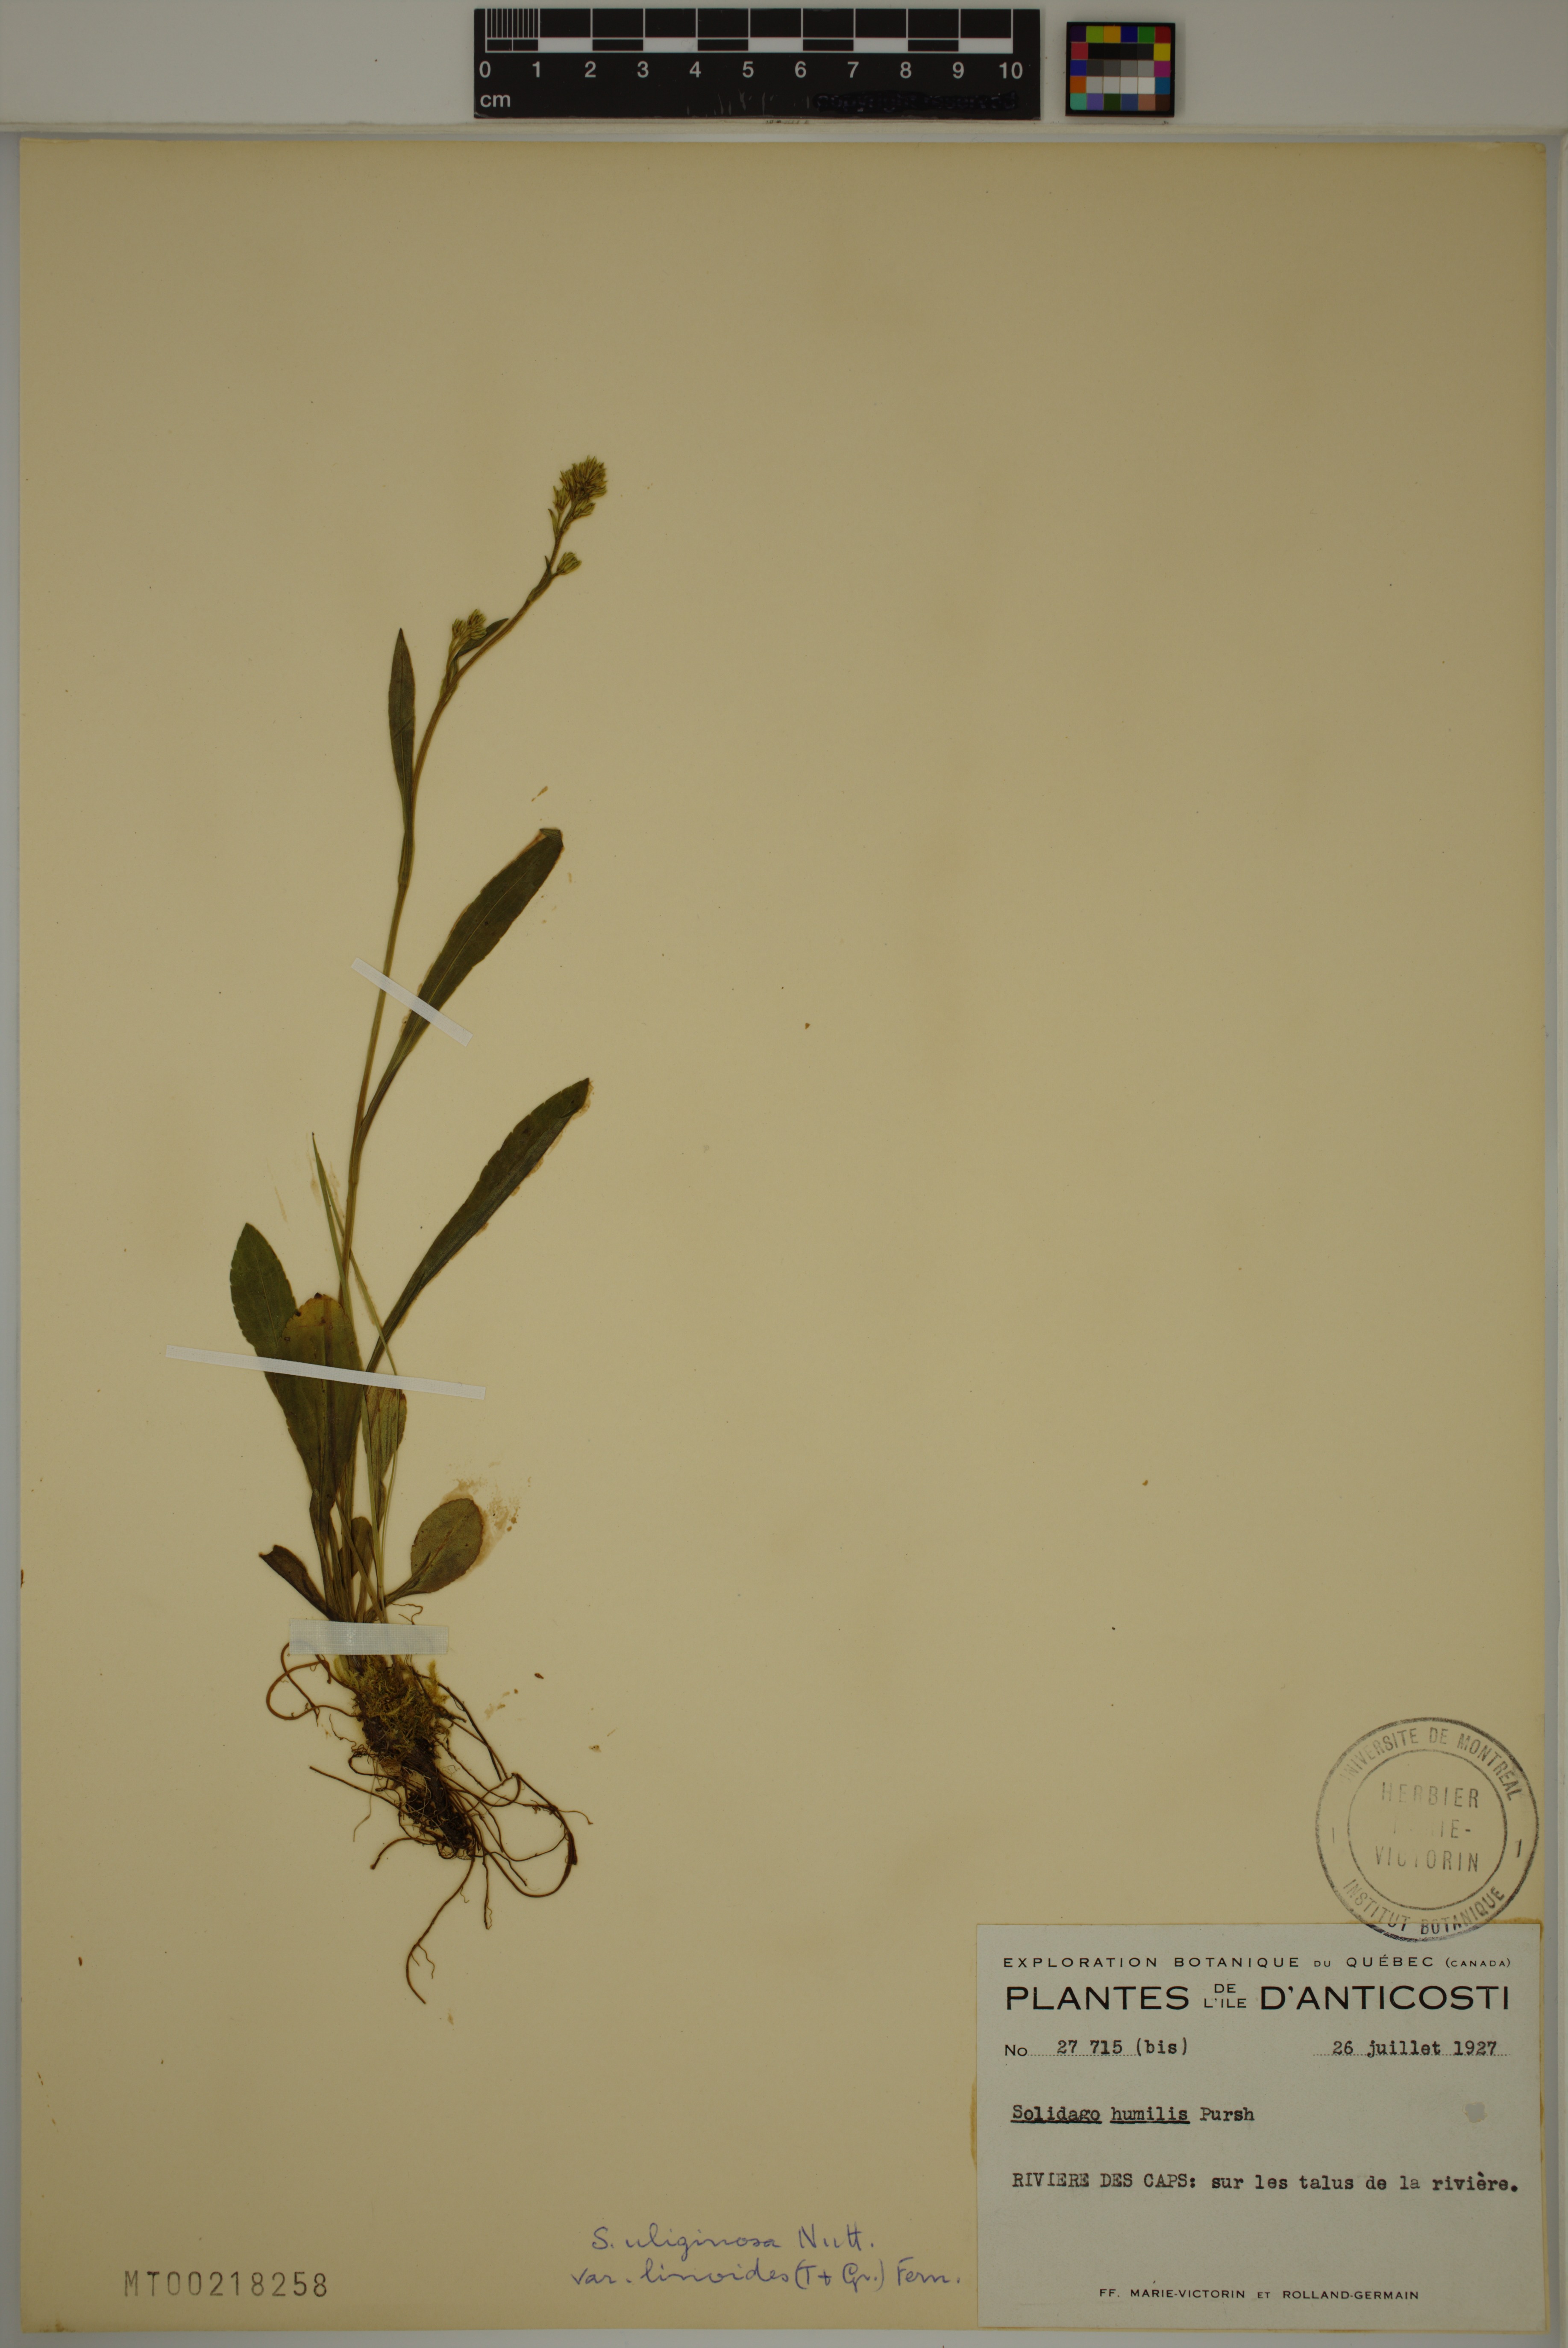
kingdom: Plantae
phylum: Tracheophyta
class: Magnoliopsida
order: Asterales
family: Asteraceae
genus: Solidago
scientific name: Solidago uliginosa
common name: Bog goldenrod
